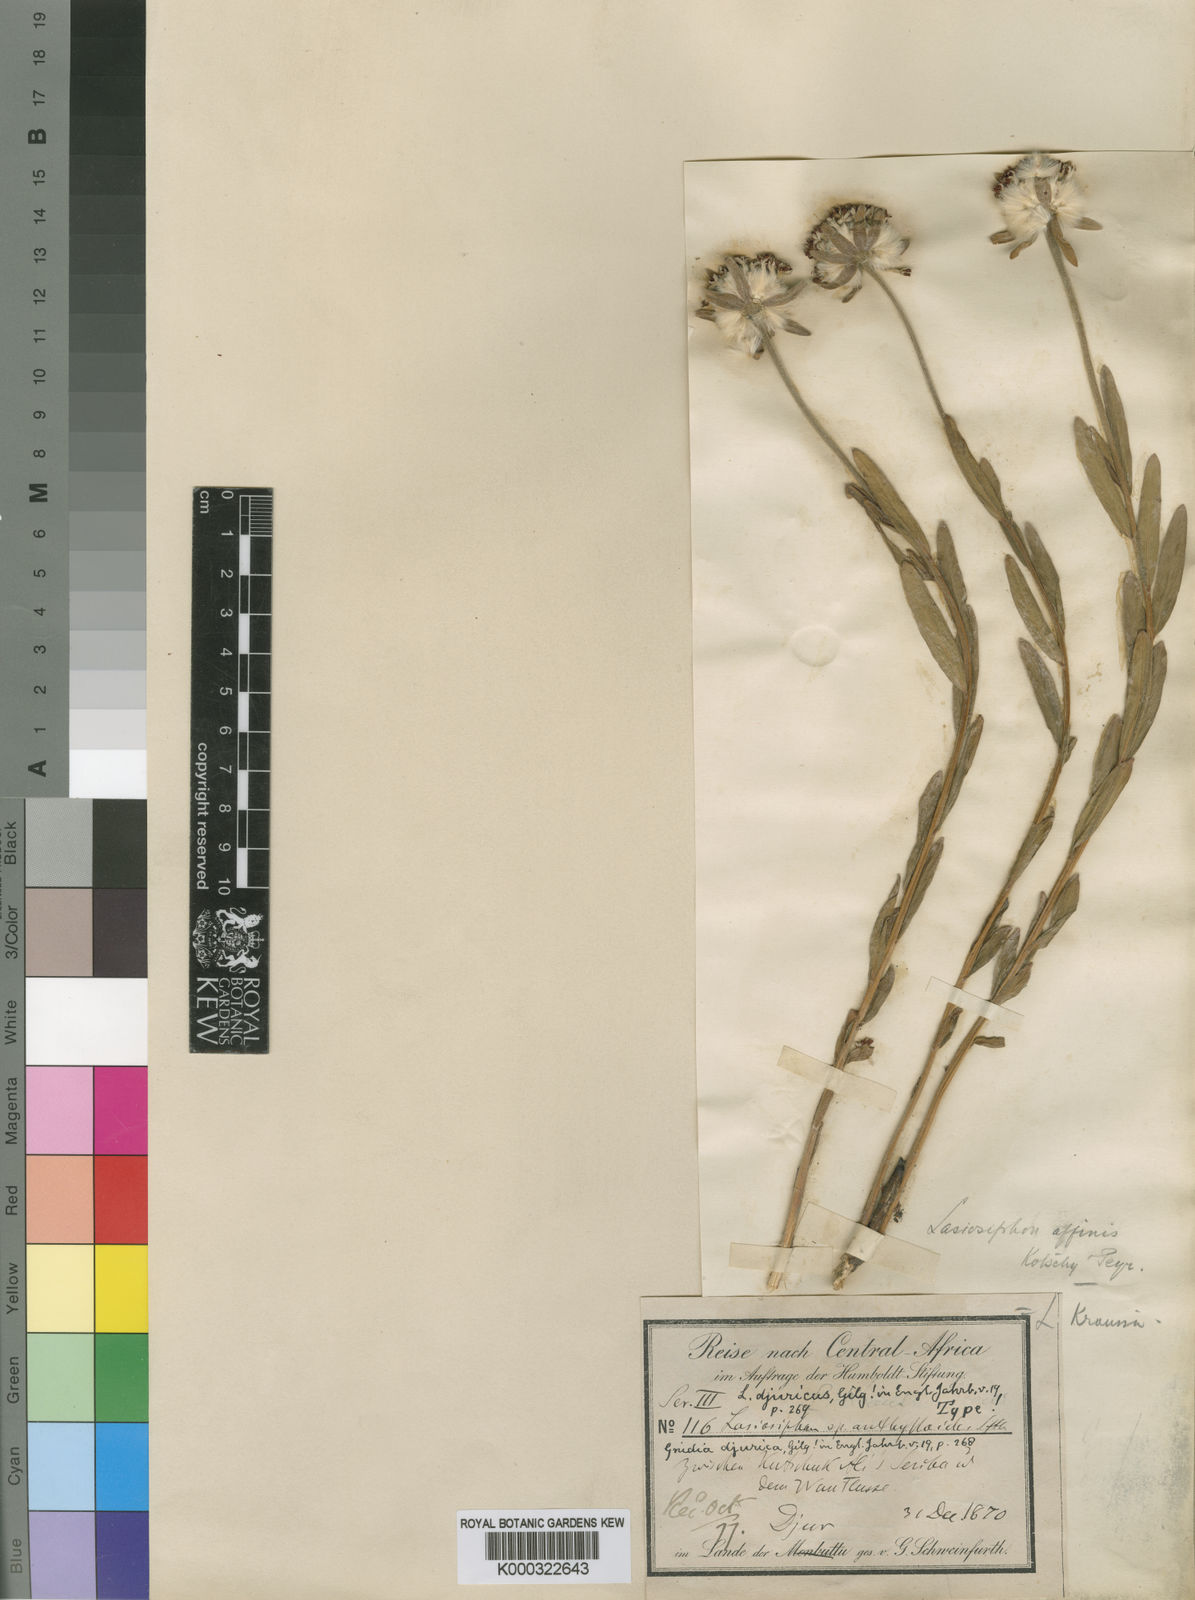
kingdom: Plantae
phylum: Tracheophyta
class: Magnoliopsida
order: Malvales
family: Thymelaeaceae
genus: Gnidia
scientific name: Gnidia kraussiana
